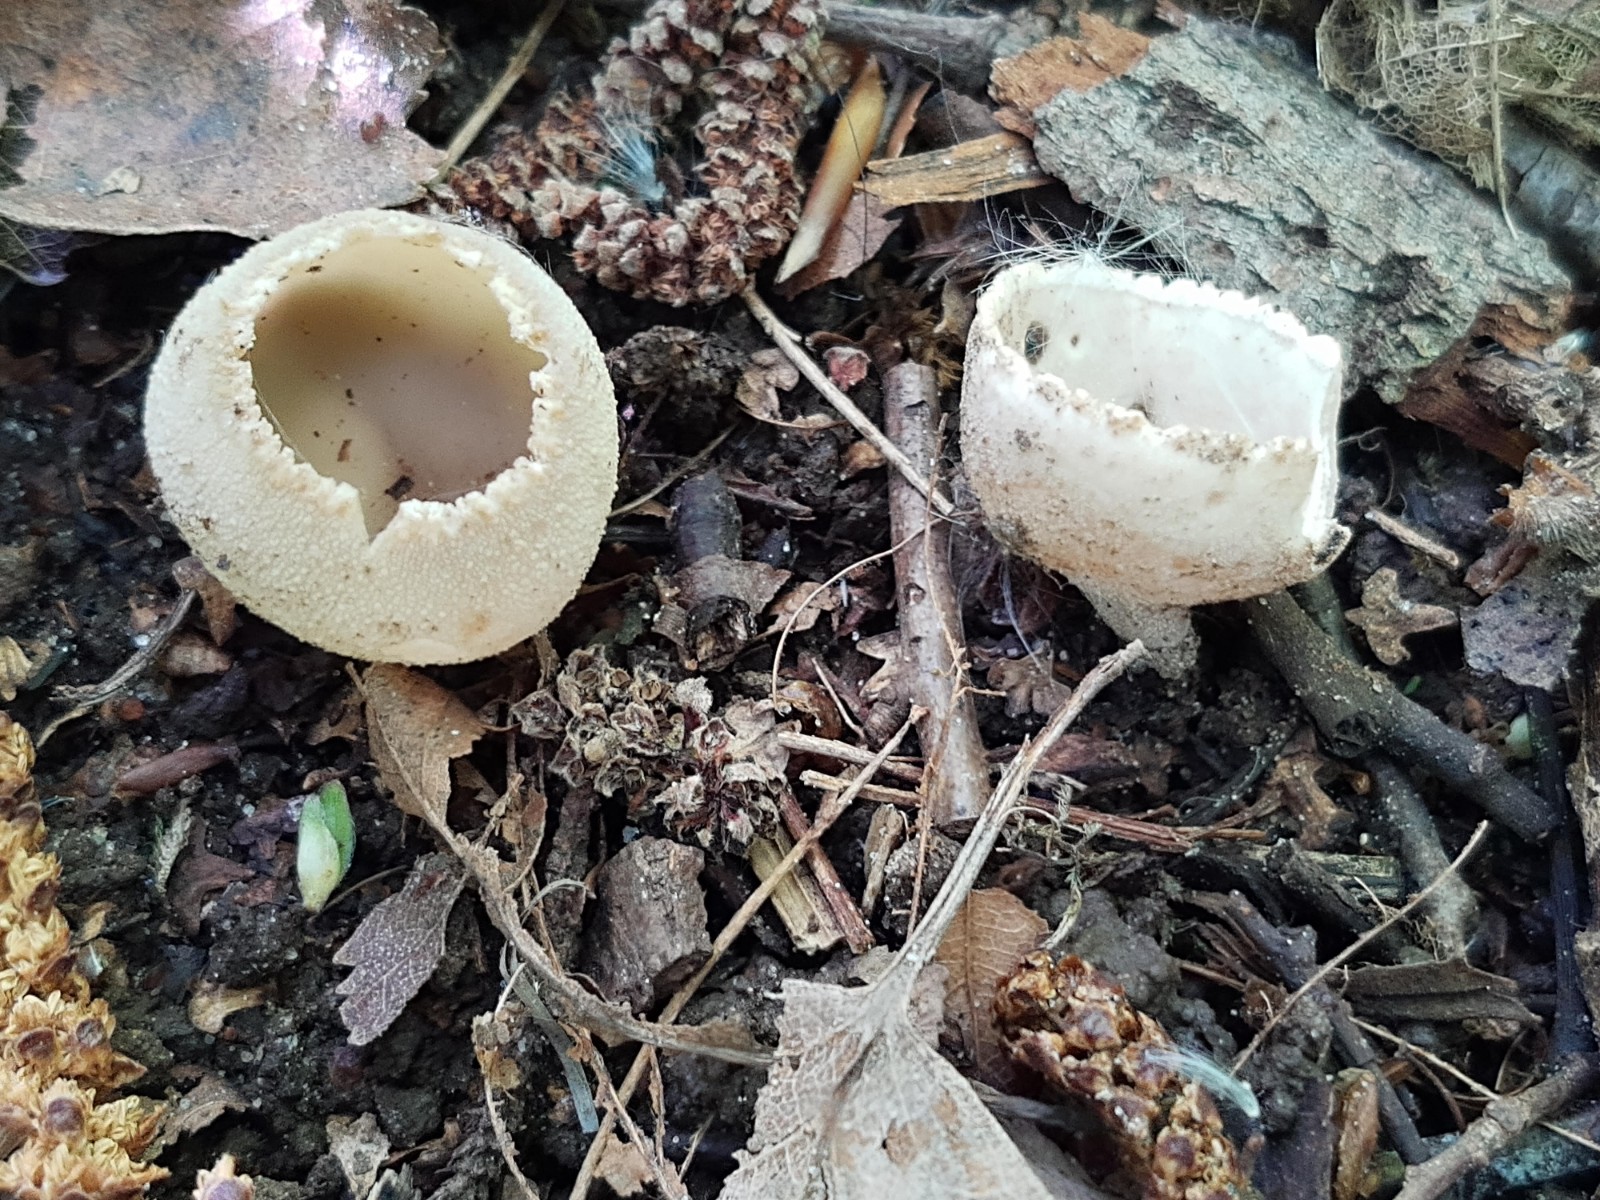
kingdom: Fungi
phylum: Ascomycota
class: Pezizomycetes
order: Pezizales
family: Pyronemataceae
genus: Tarzetta
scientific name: Tarzetta cupularis
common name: gulbrun pokalbæger
